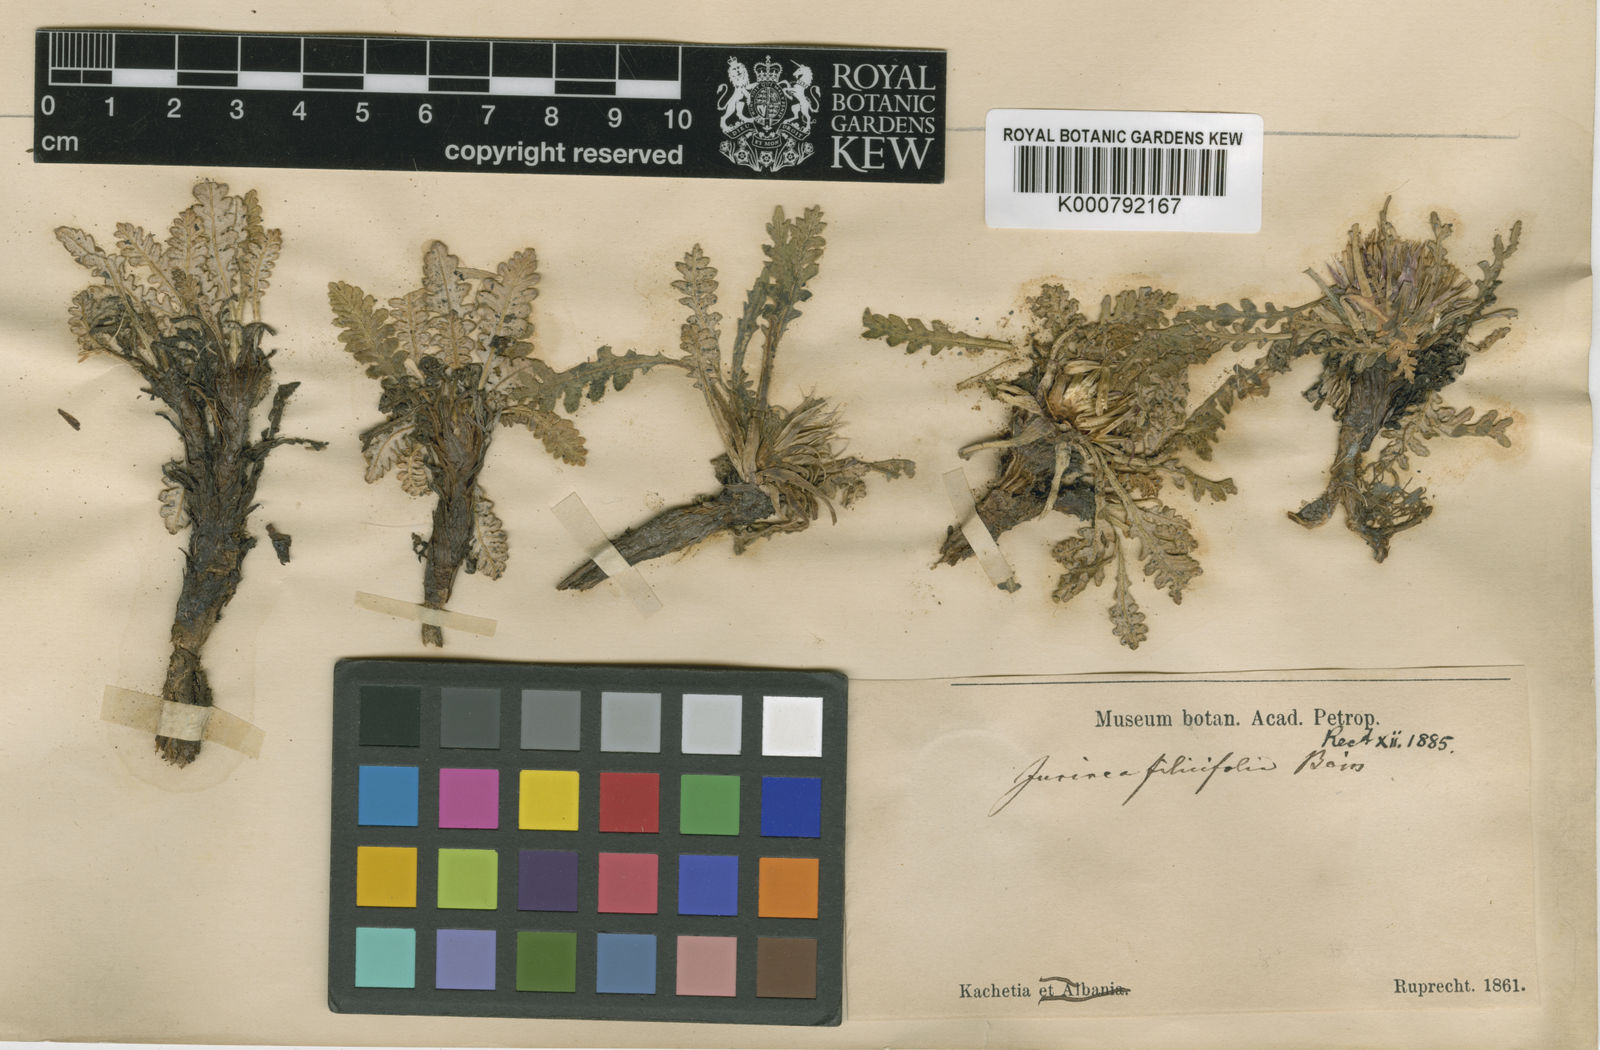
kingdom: Plantae
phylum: Tracheophyta
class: Magnoliopsida
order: Asterales
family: Asteraceae
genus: Jurinea
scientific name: Jurinea filicifolia
